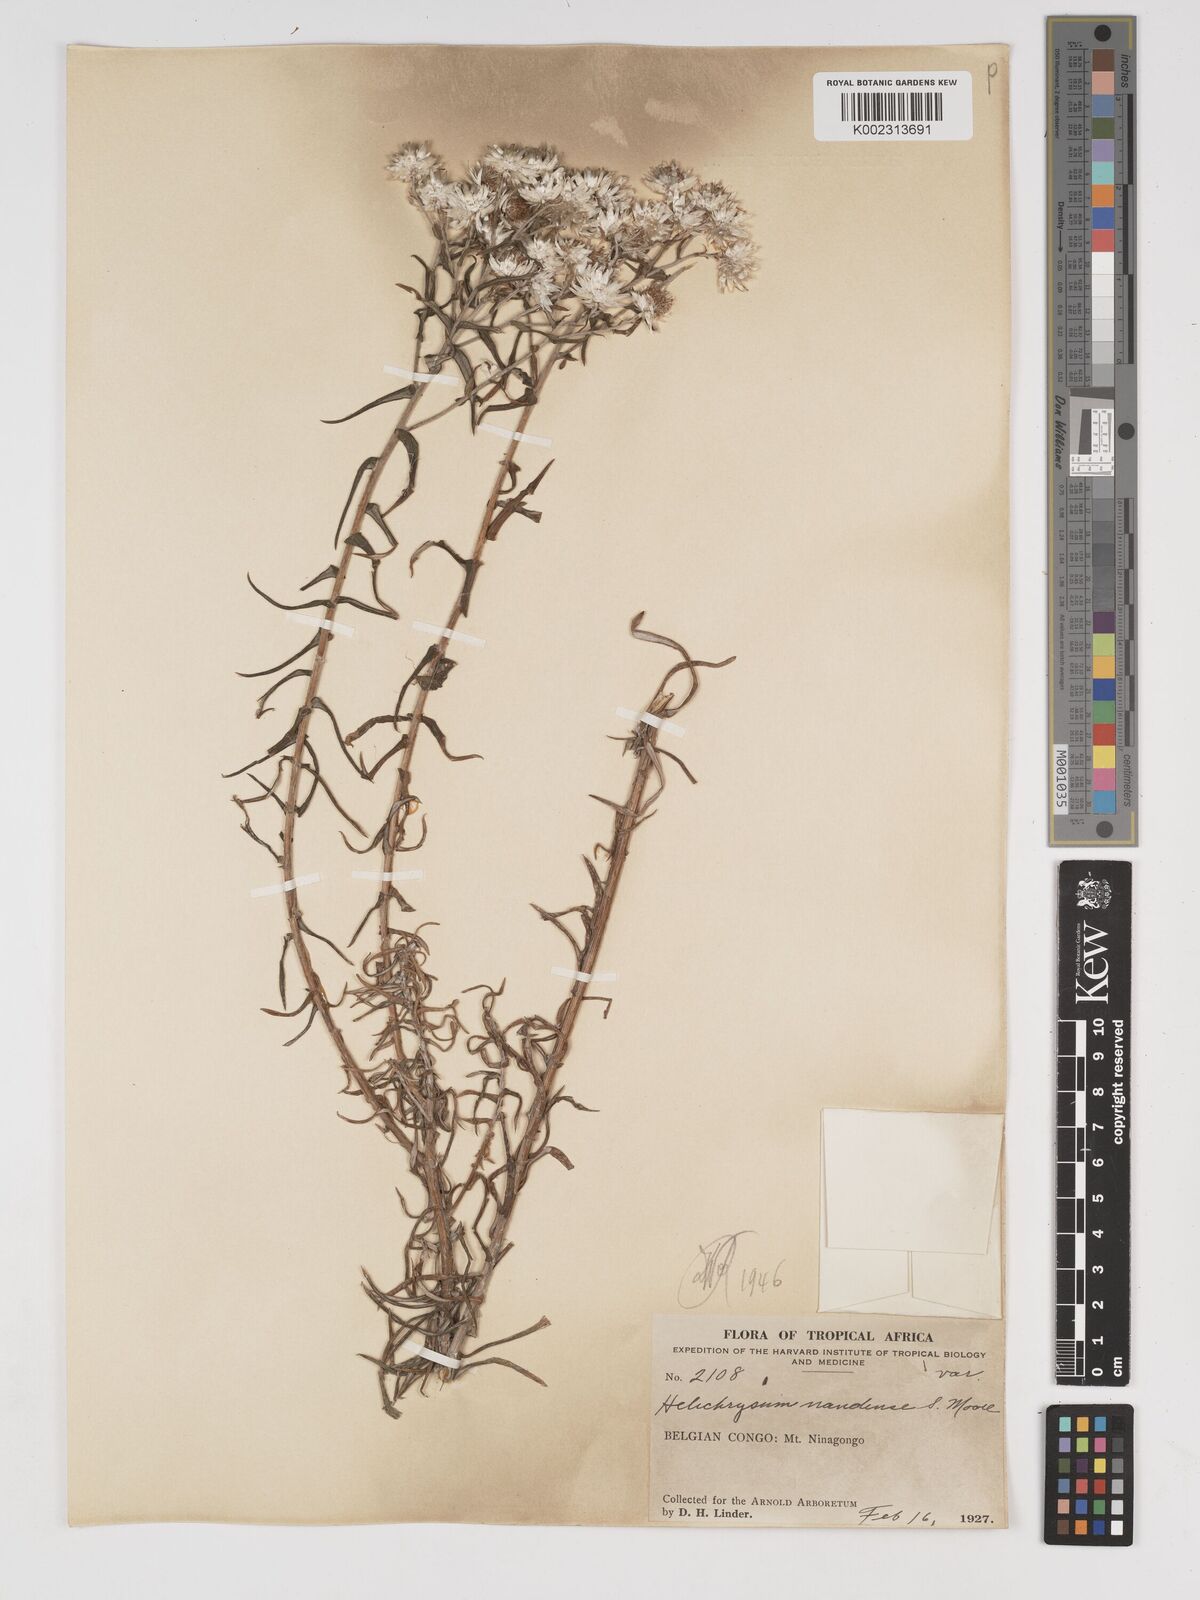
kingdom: Plantae
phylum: Tracheophyta
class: Magnoliopsida
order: Asterales
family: Asteraceae
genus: Helichrysum
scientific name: Helichrysum argyranthum
